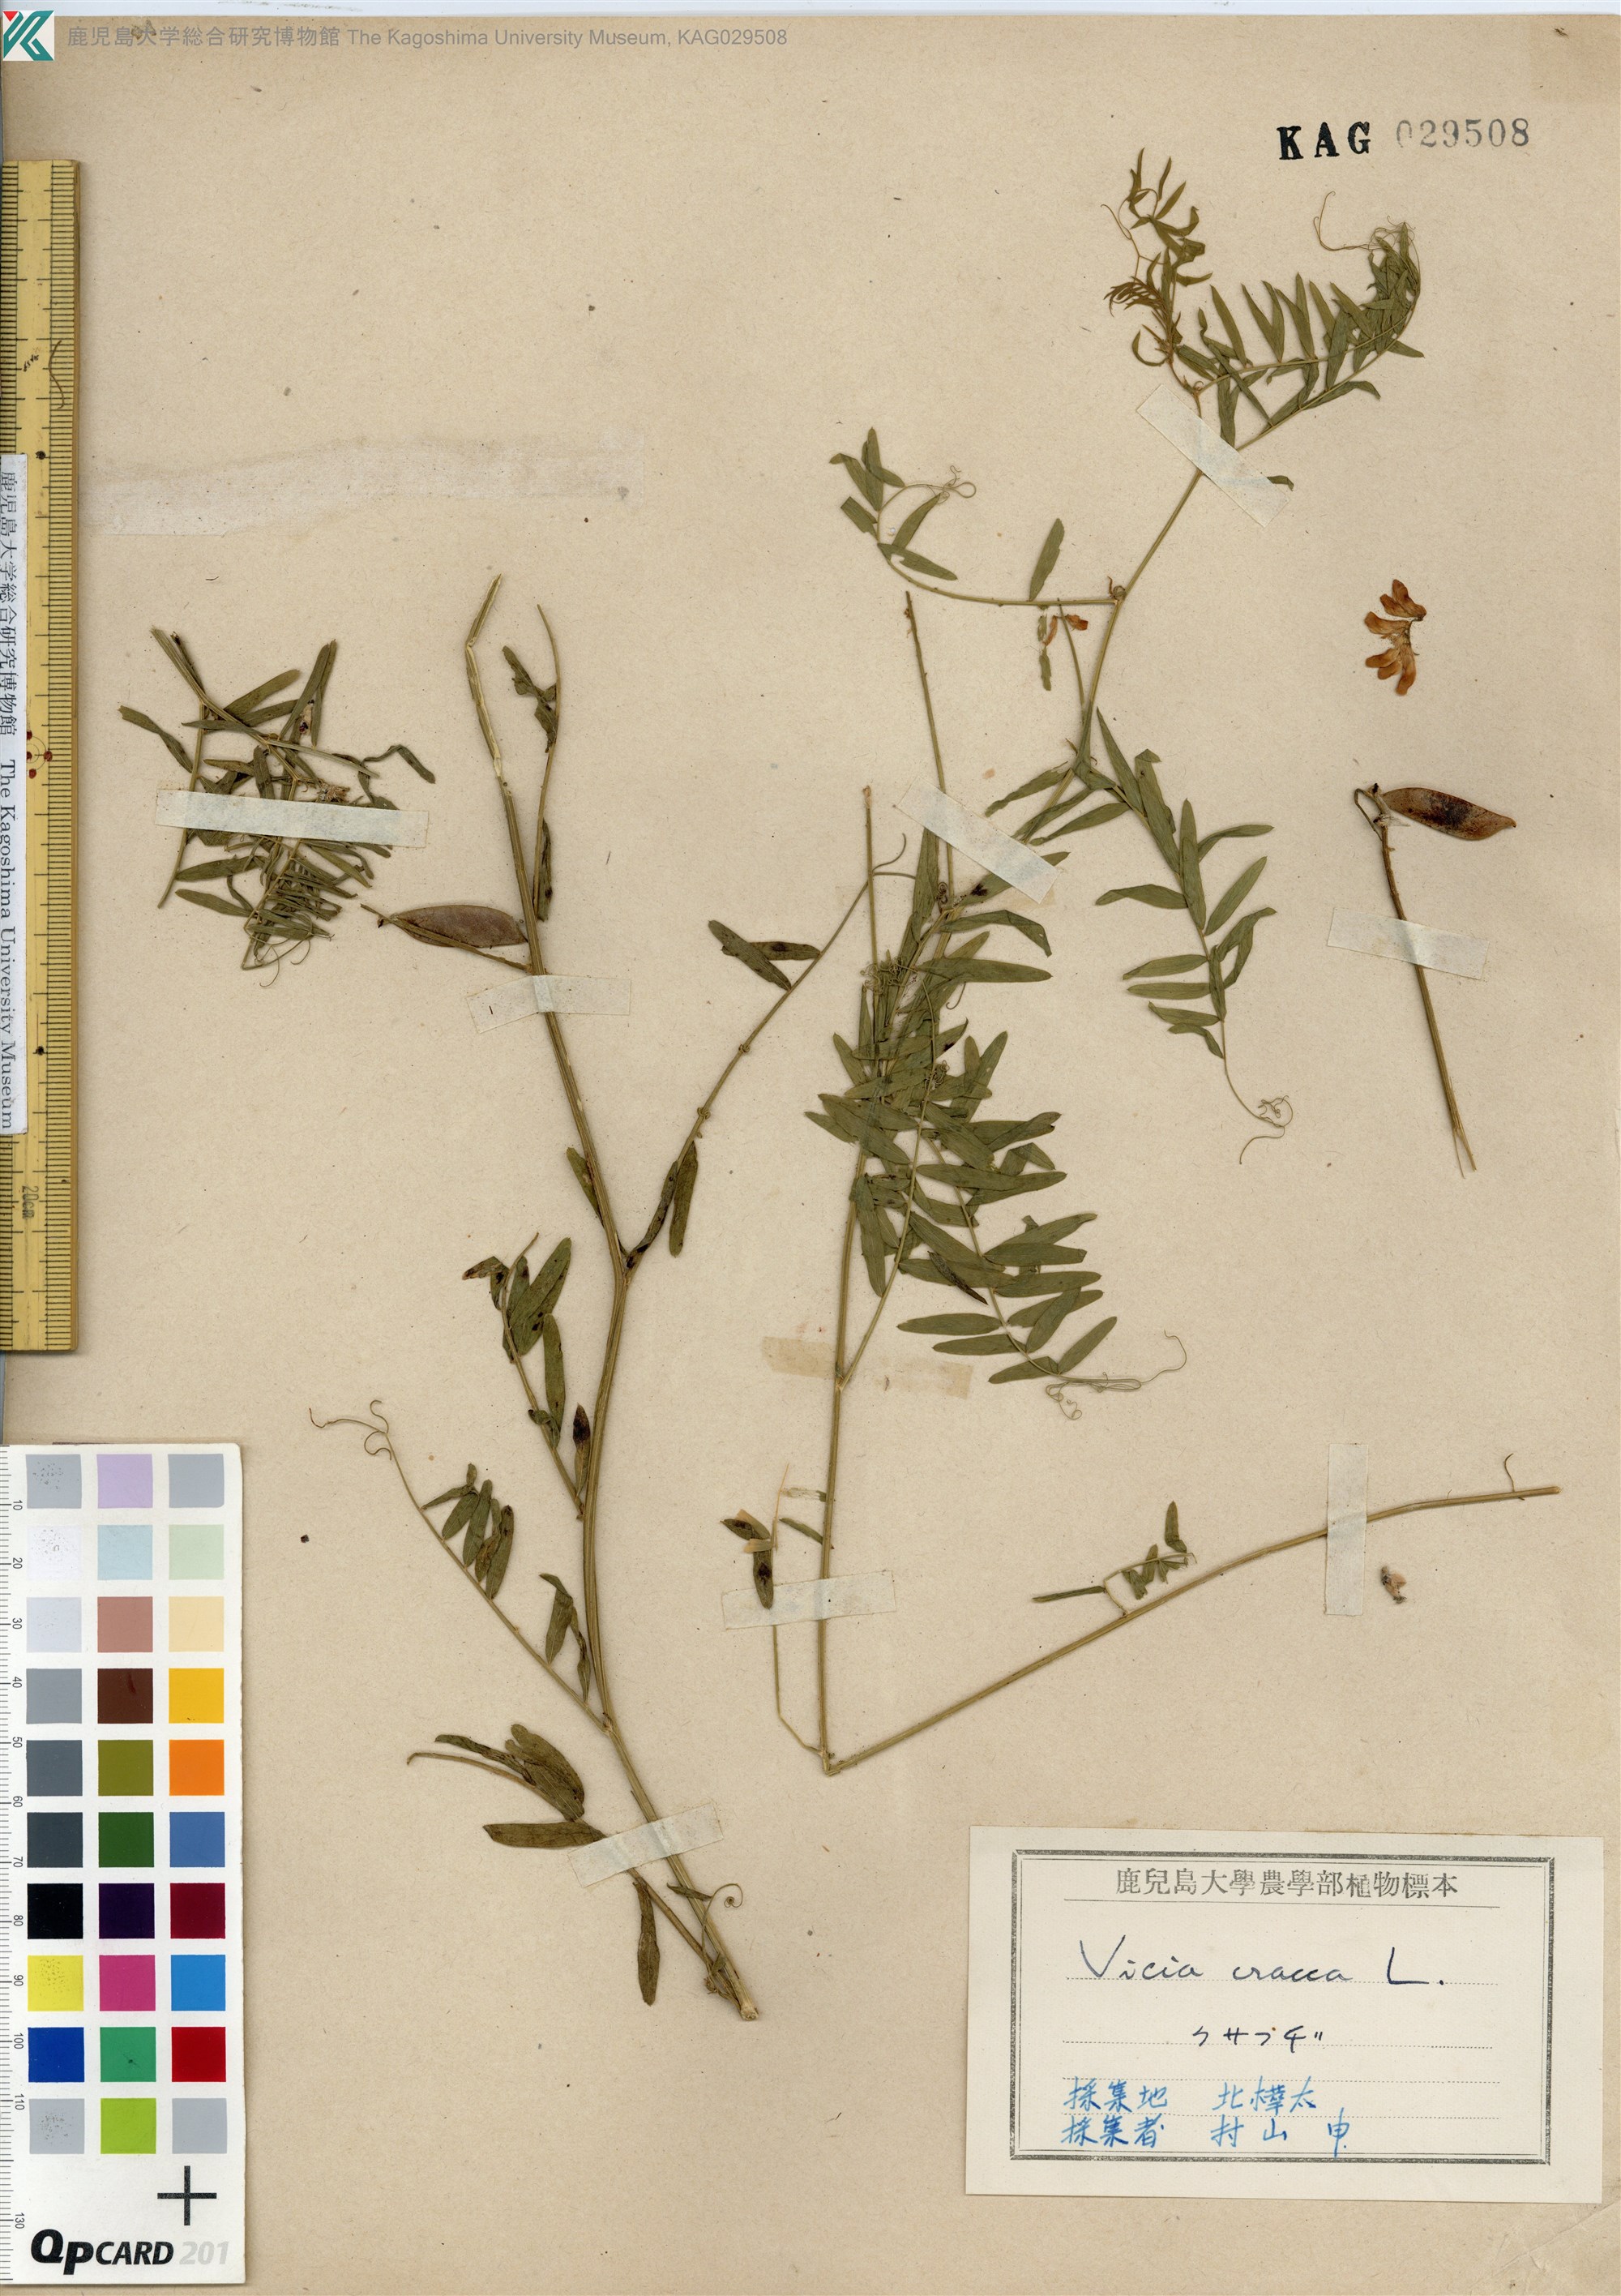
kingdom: Plantae
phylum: Tracheophyta
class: Magnoliopsida
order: Fabales
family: Fabaceae
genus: Vicia
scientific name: Vicia cracca
